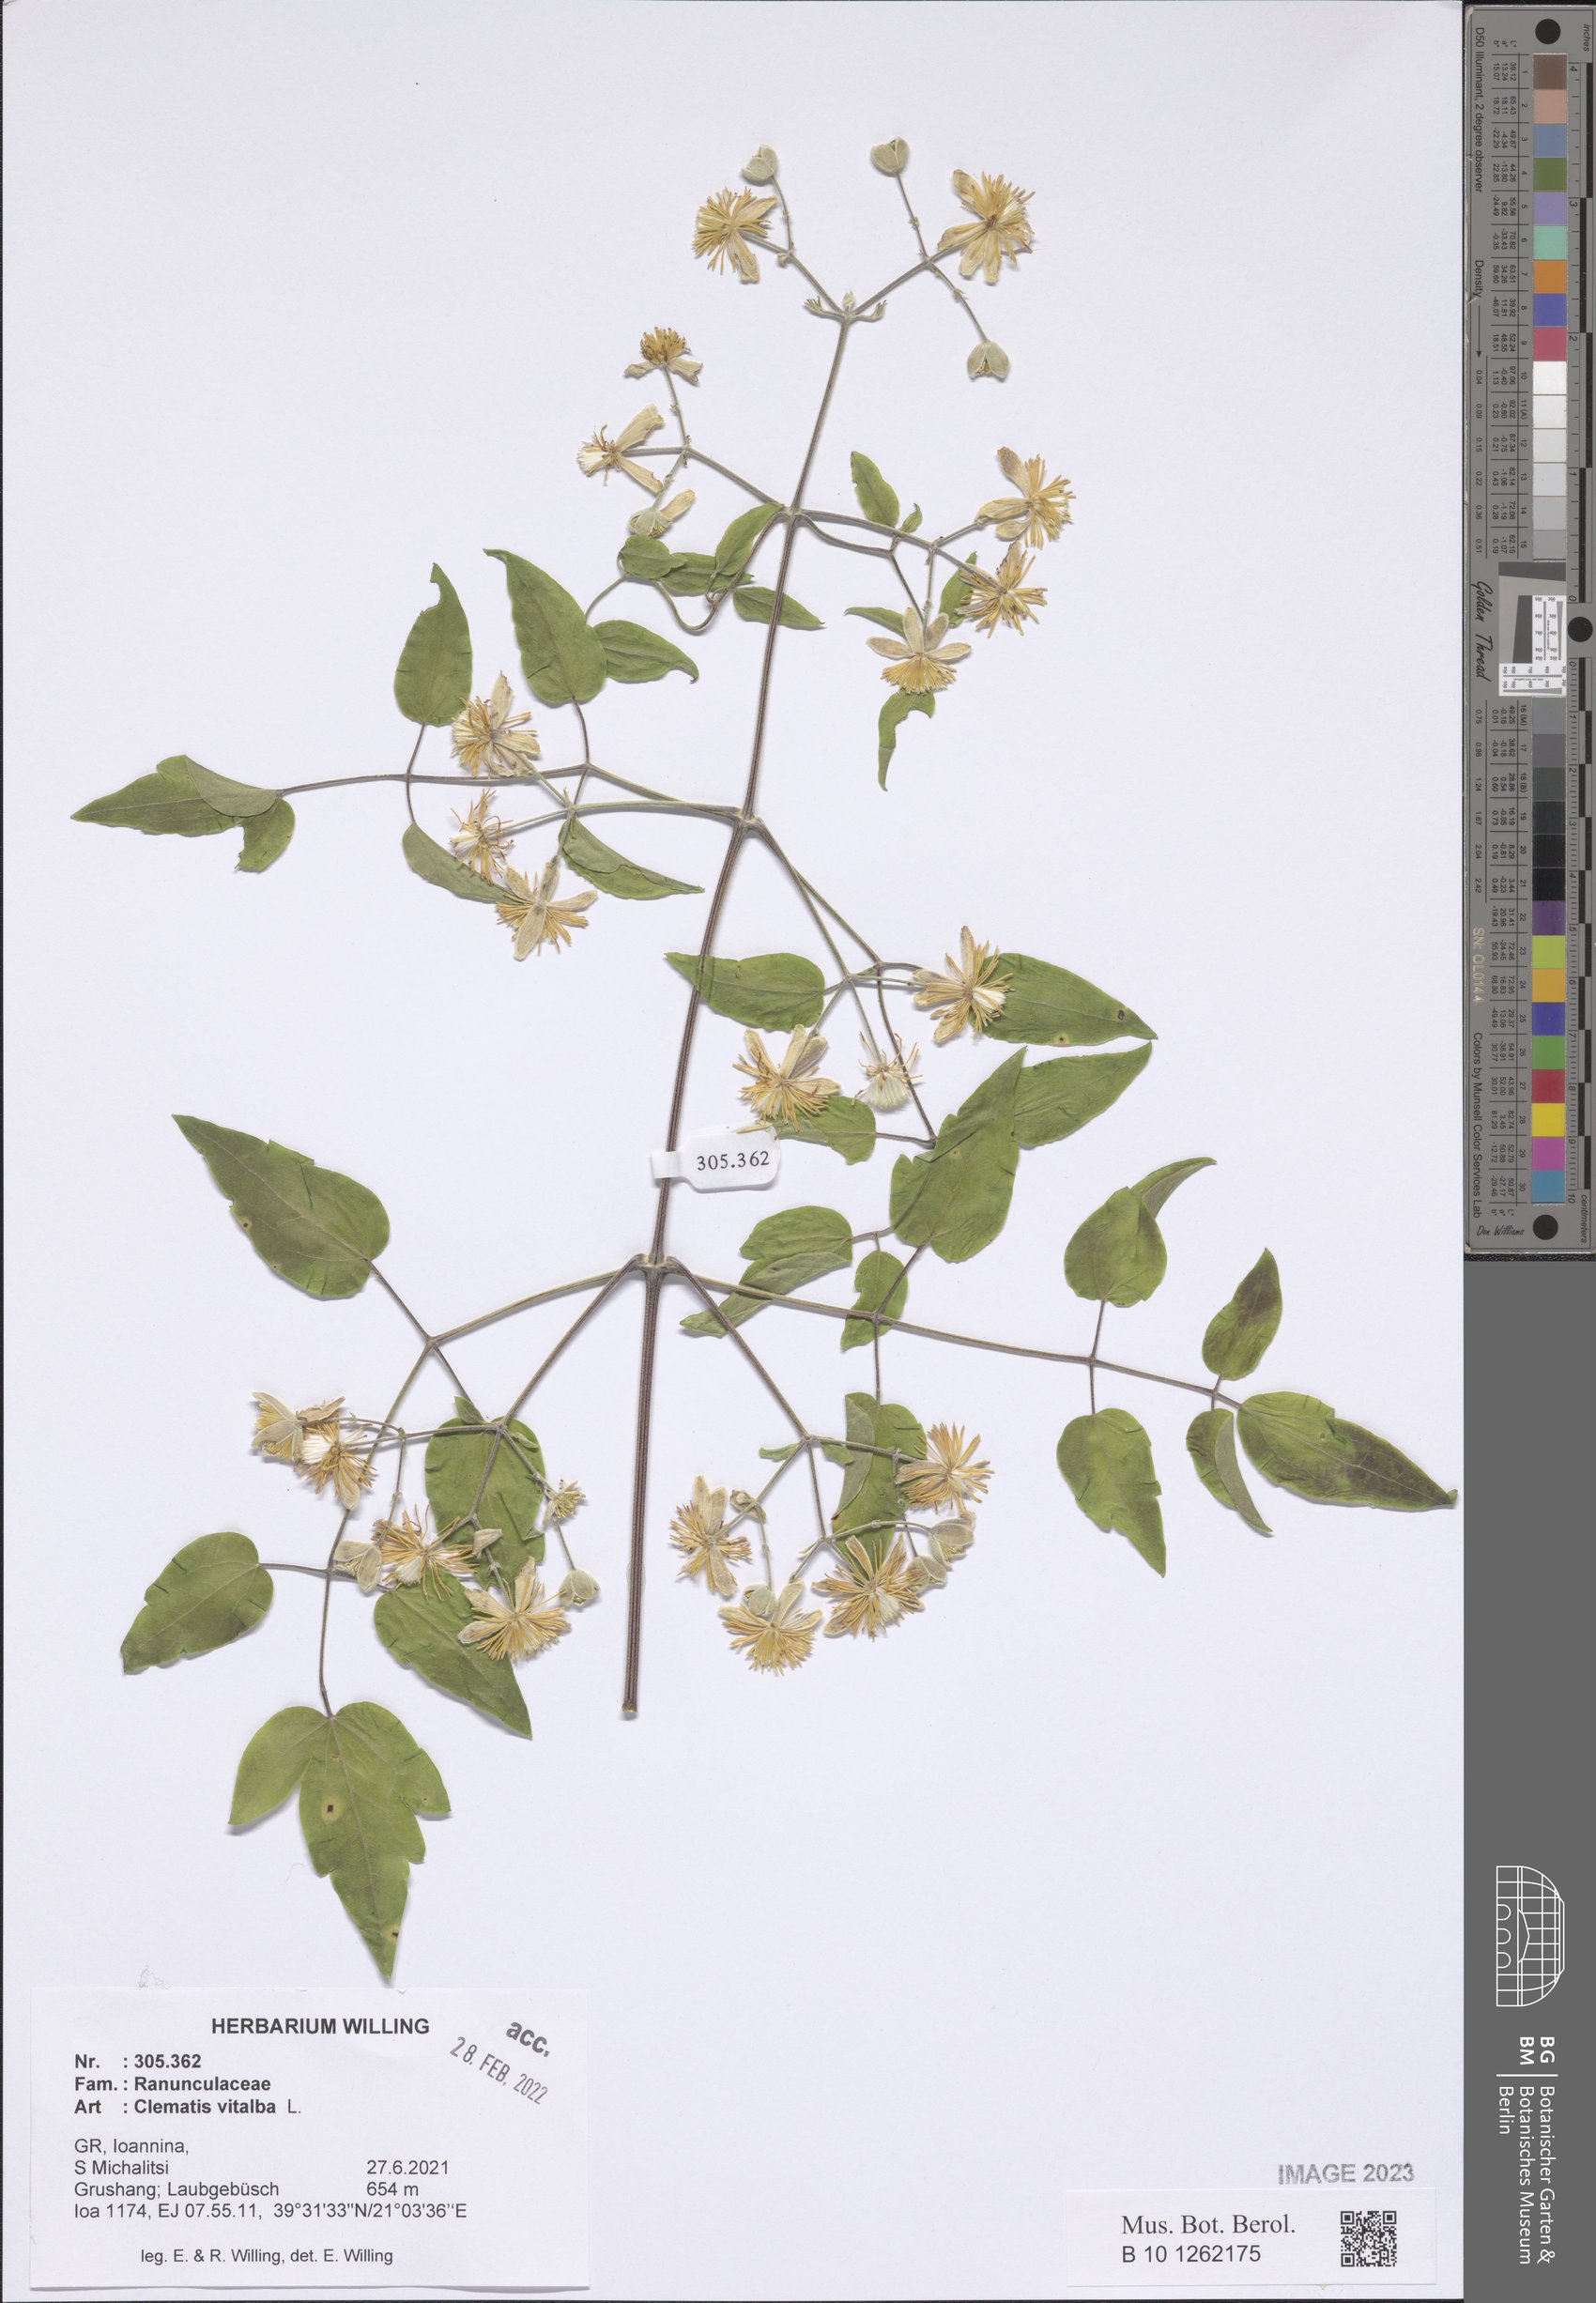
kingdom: Plantae
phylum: Tracheophyta
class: Magnoliopsida
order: Ranunculales
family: Ranunculaceae
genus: Clematis
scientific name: Clematis vitalba
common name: Evergreen clematis
